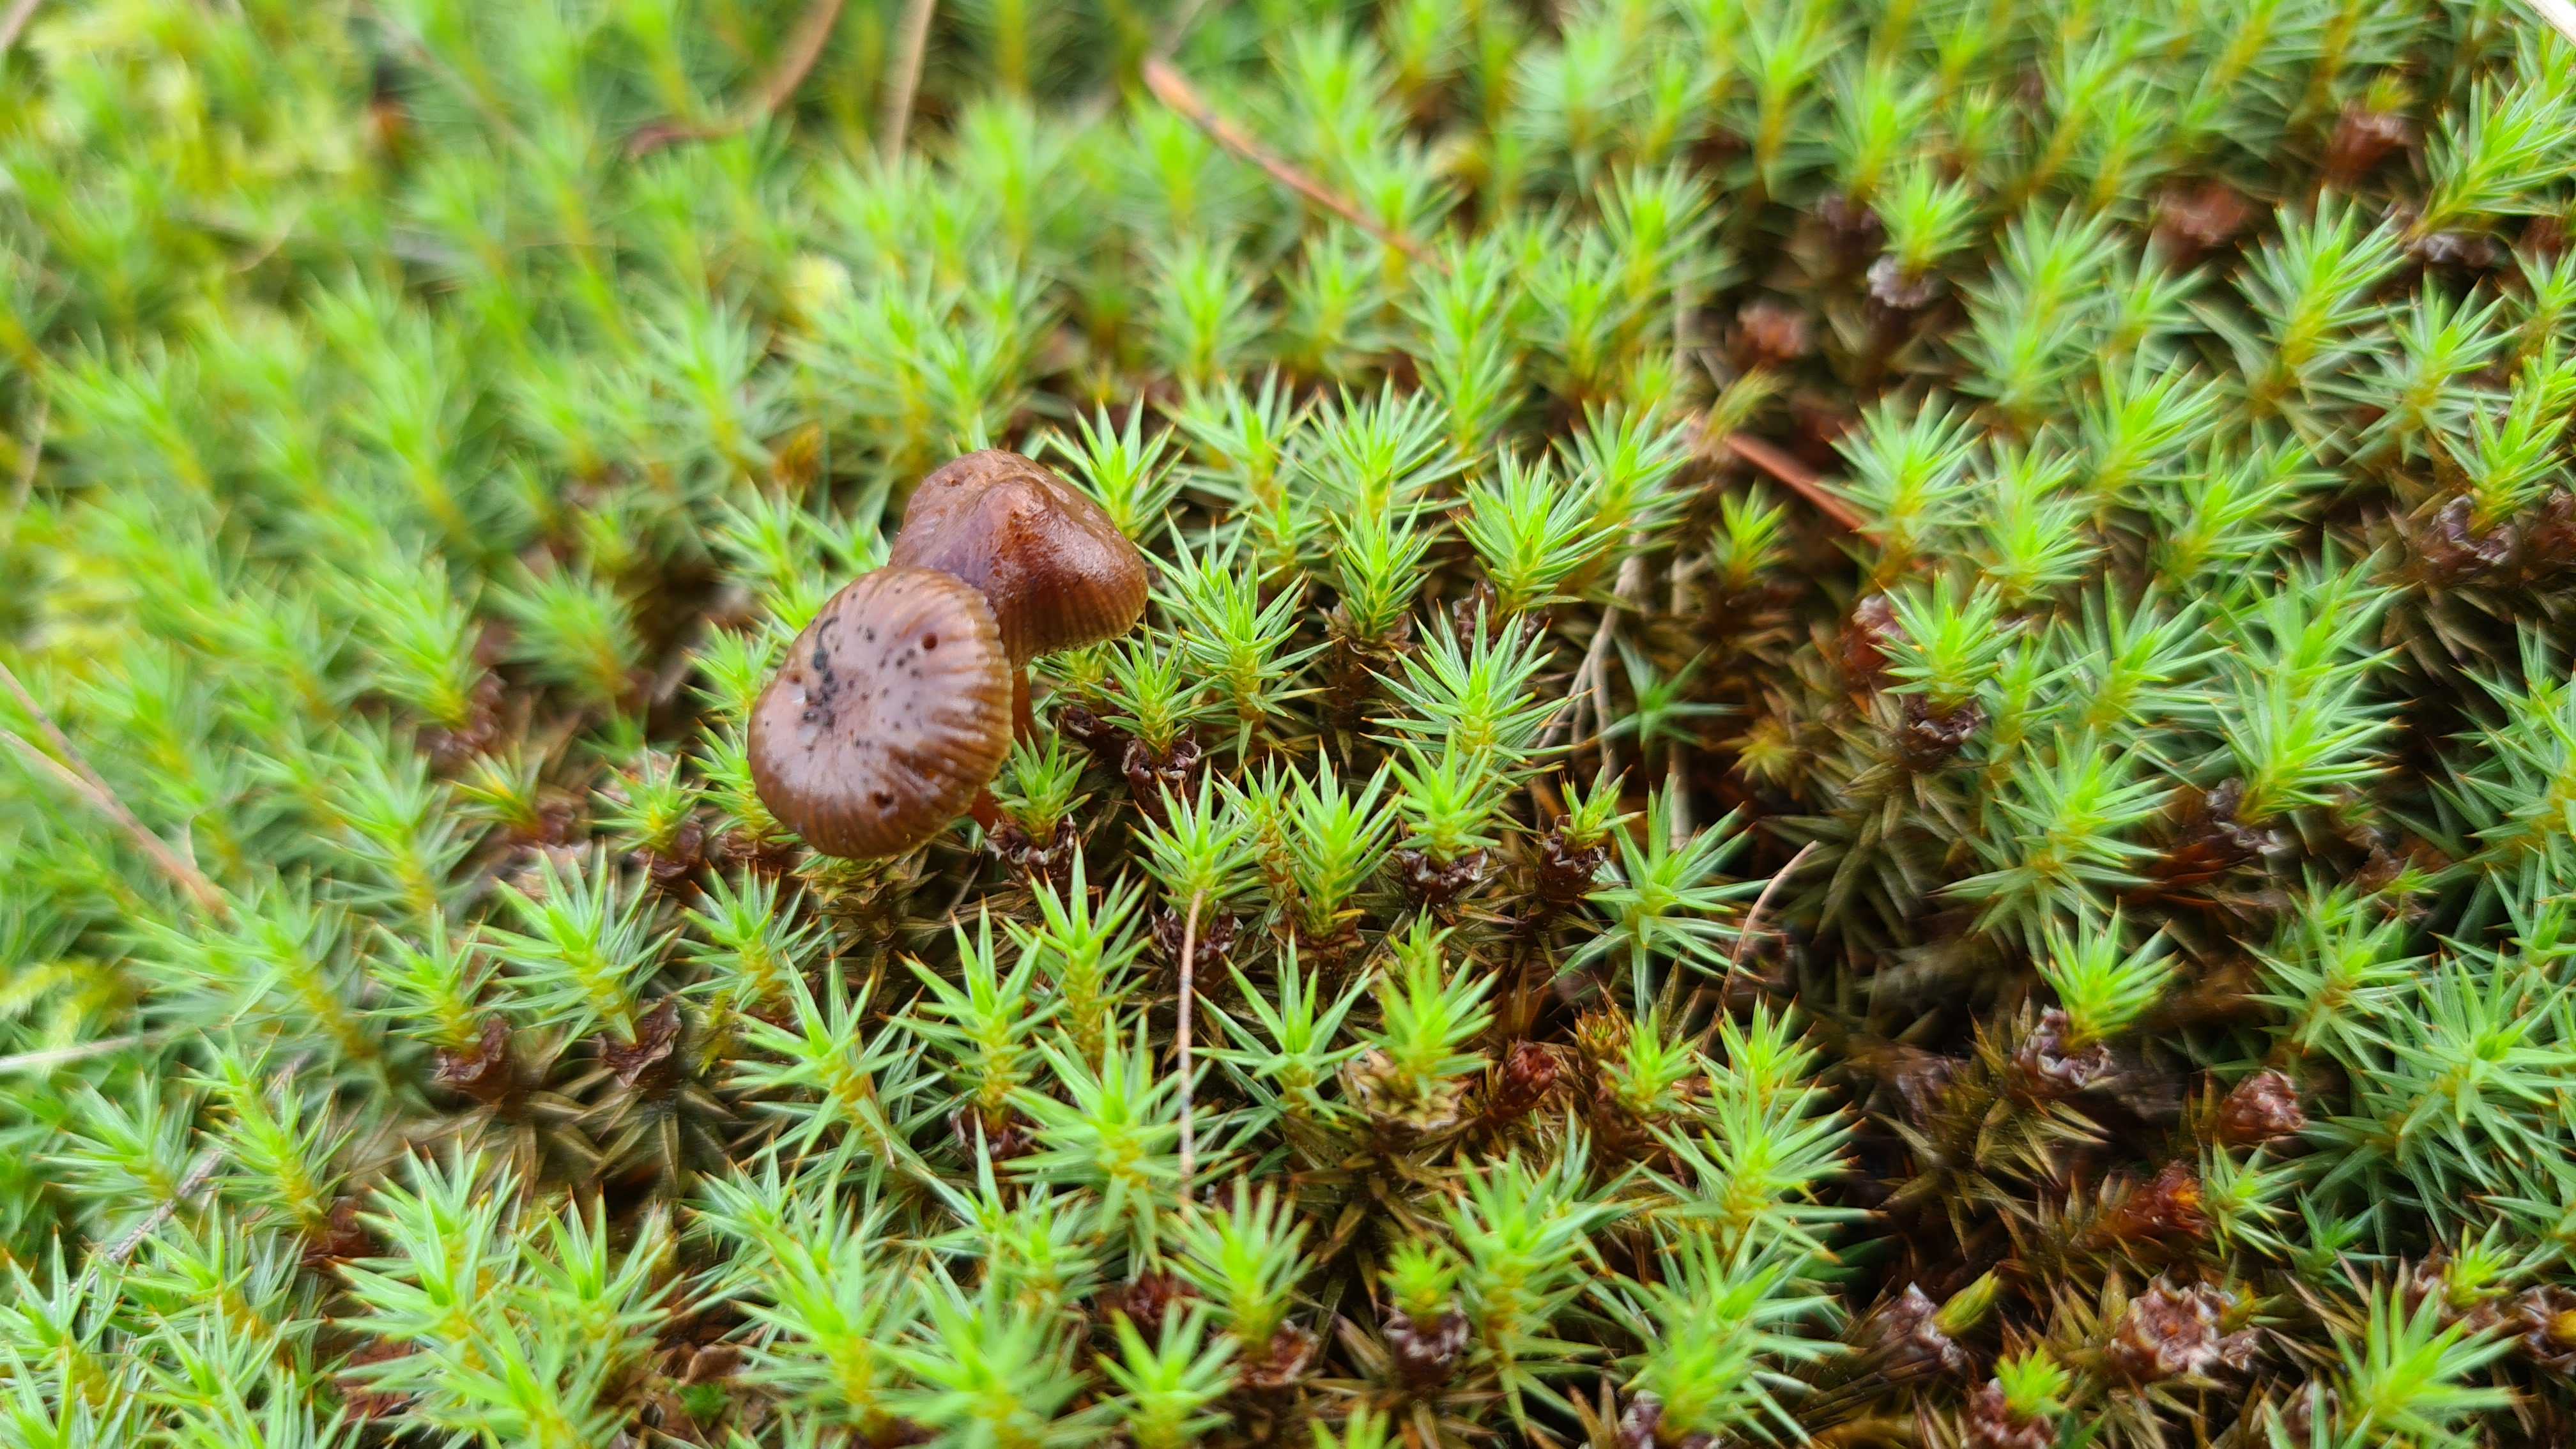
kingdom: Fungi
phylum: Basidiomycota
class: Agaricomycetes
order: Agaricales
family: Strophariaceae
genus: Deconica
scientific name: Deconica montana
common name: rødbrun stråhat
